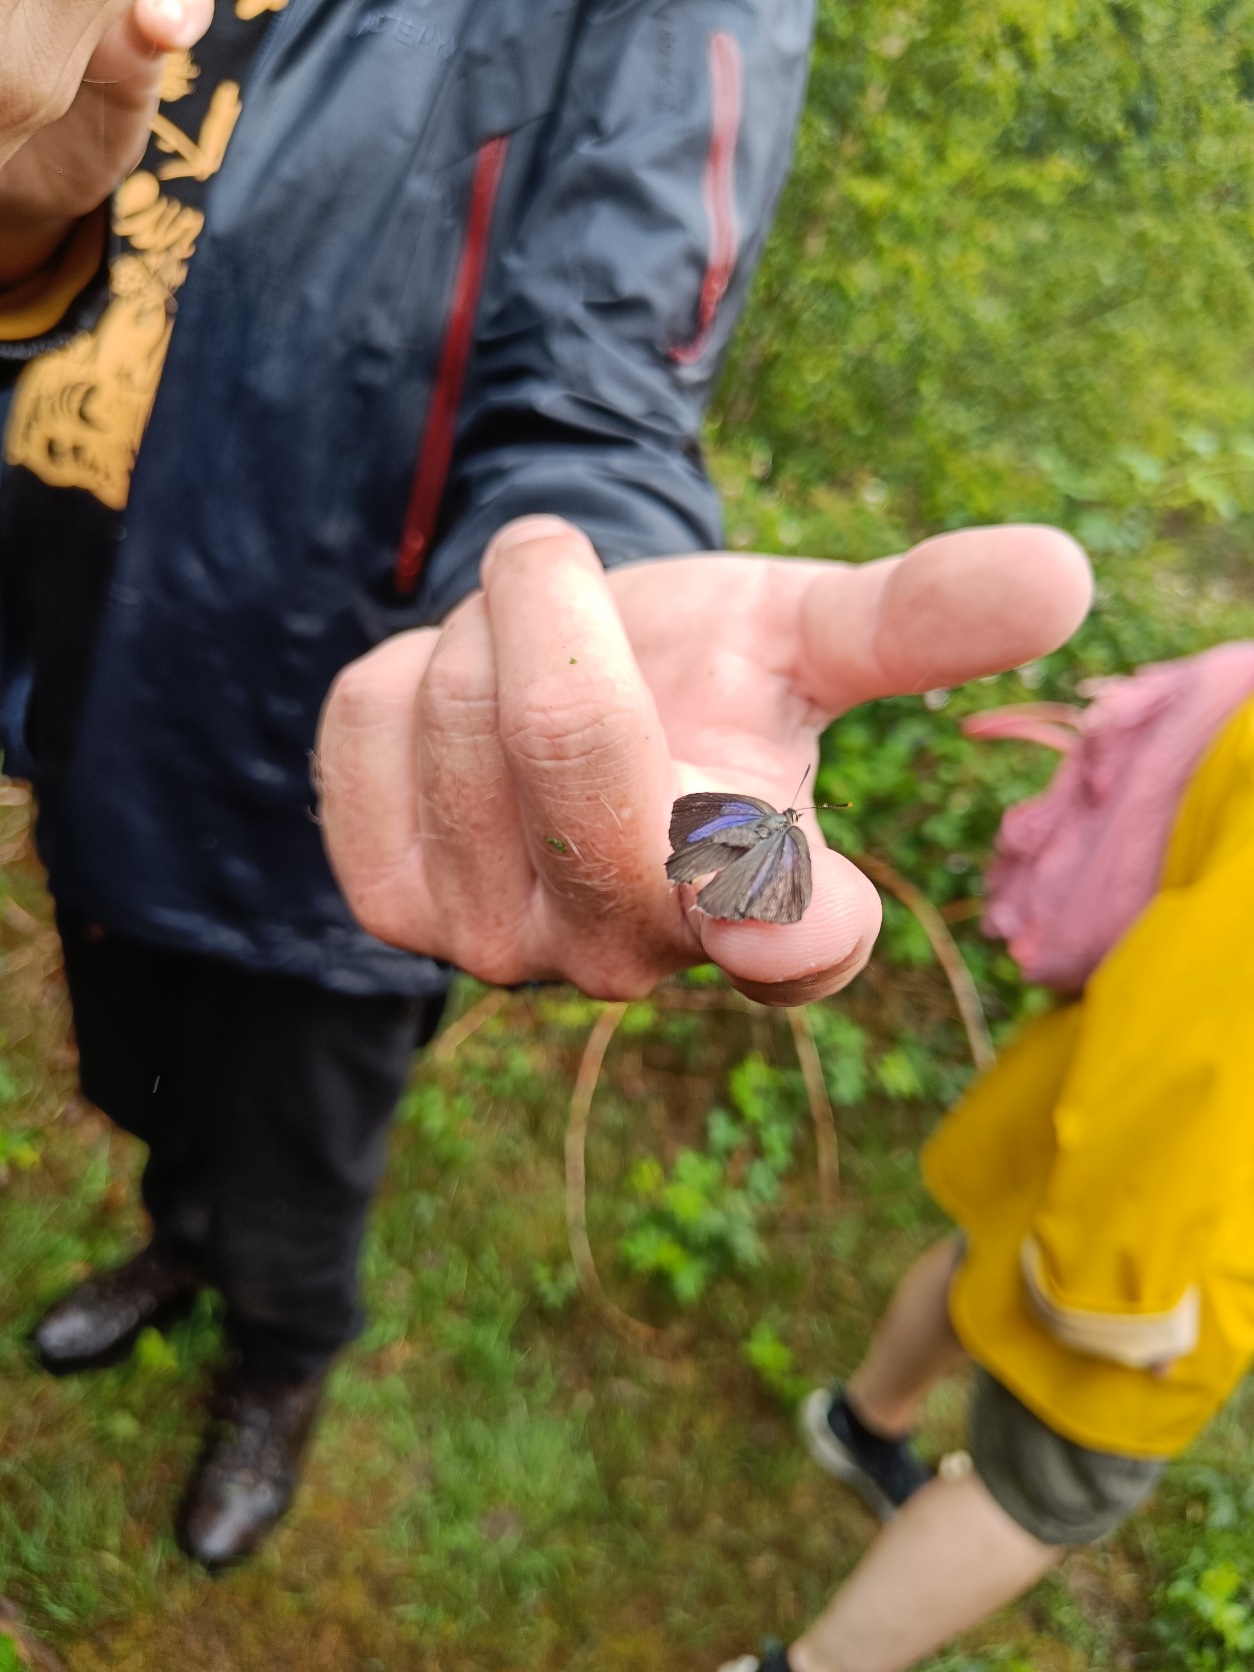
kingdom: Animalia
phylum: Arthropoda
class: Insecta
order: Lepidoptera
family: Lycaenidae
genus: Quercusia
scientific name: Quercusia quercus
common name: Blåhale
